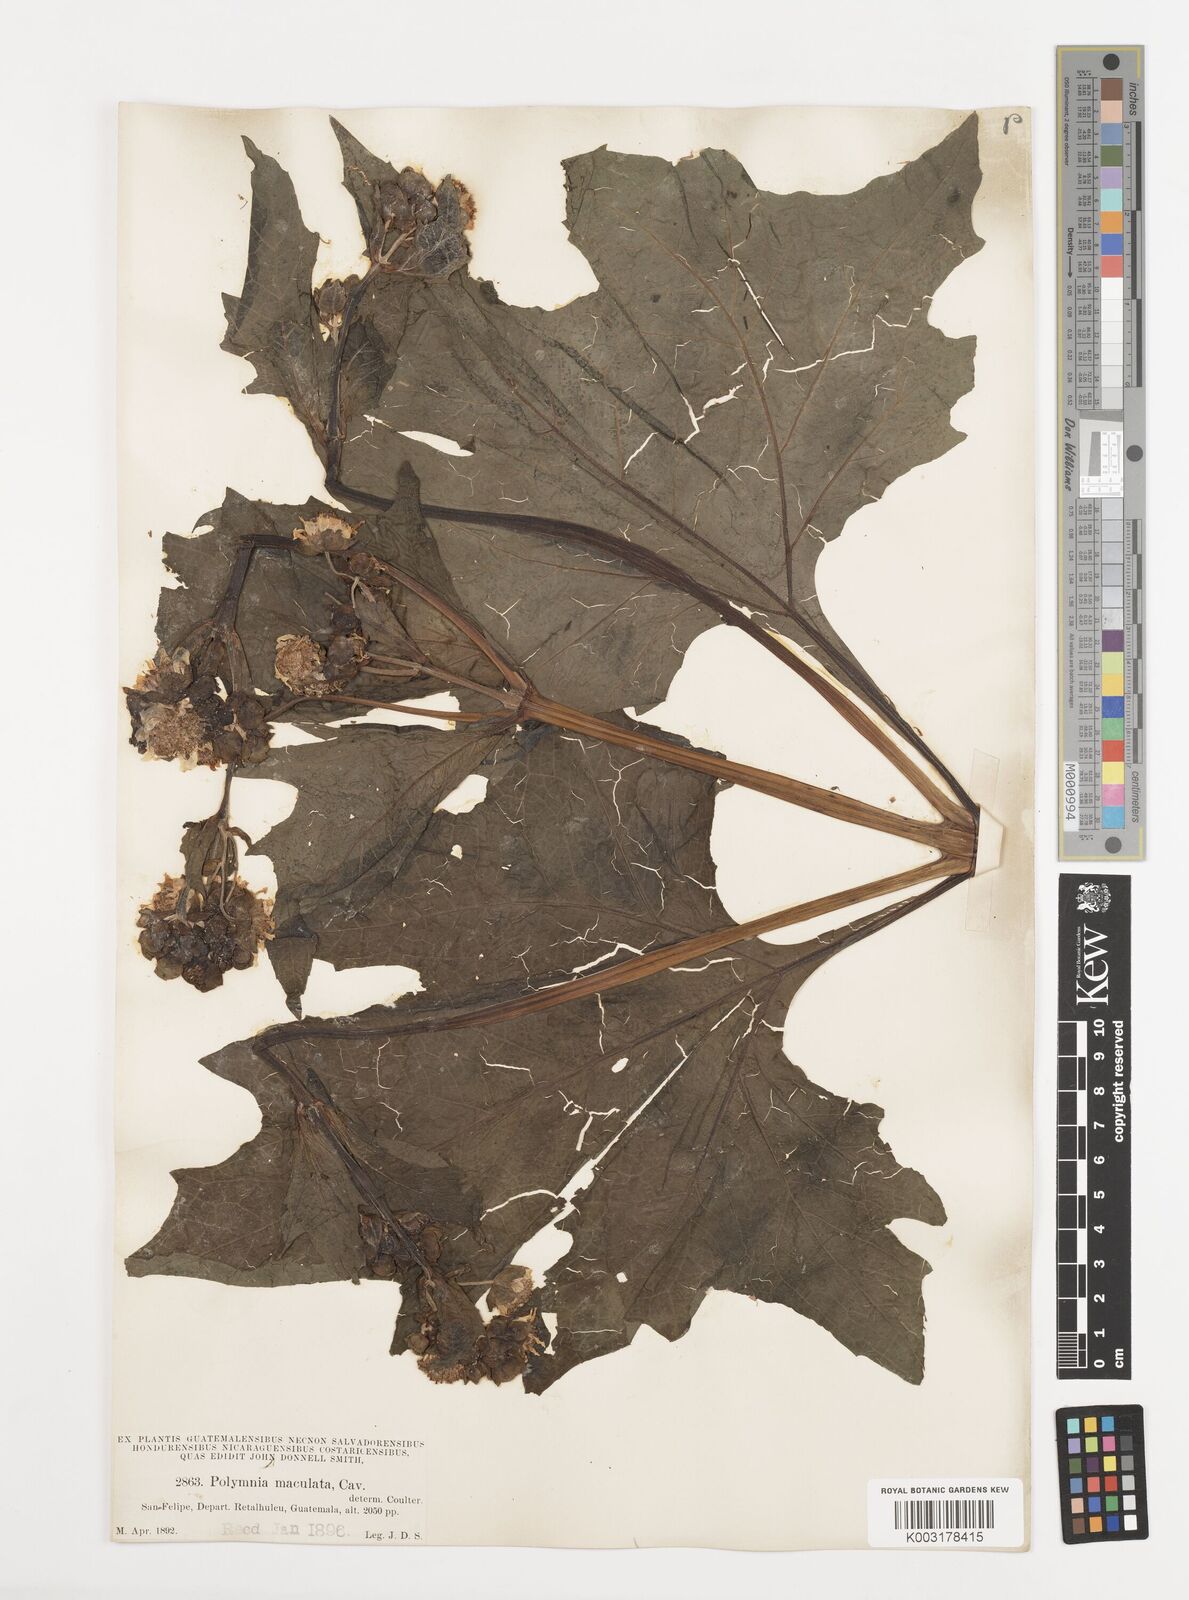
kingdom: Plantae
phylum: Tracheophyta
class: Magnoliopsida
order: Asterales
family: Asteraceae
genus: Smallanthus
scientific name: Smallanthus maculatus
